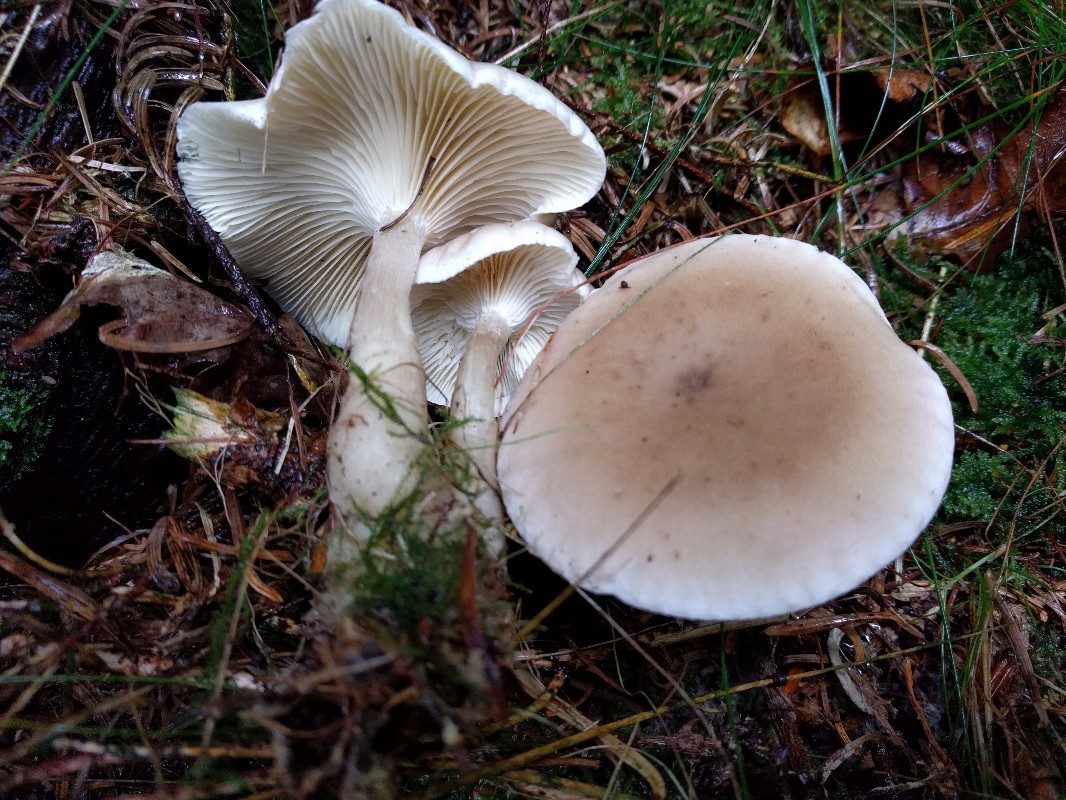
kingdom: Fungi
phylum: Basidiomycota
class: Agaricomycetes
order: Agaricales
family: Hygrophoraceae
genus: Ampulloclitocybe
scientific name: Ampulloclitocybe clavipes
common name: køllefod
